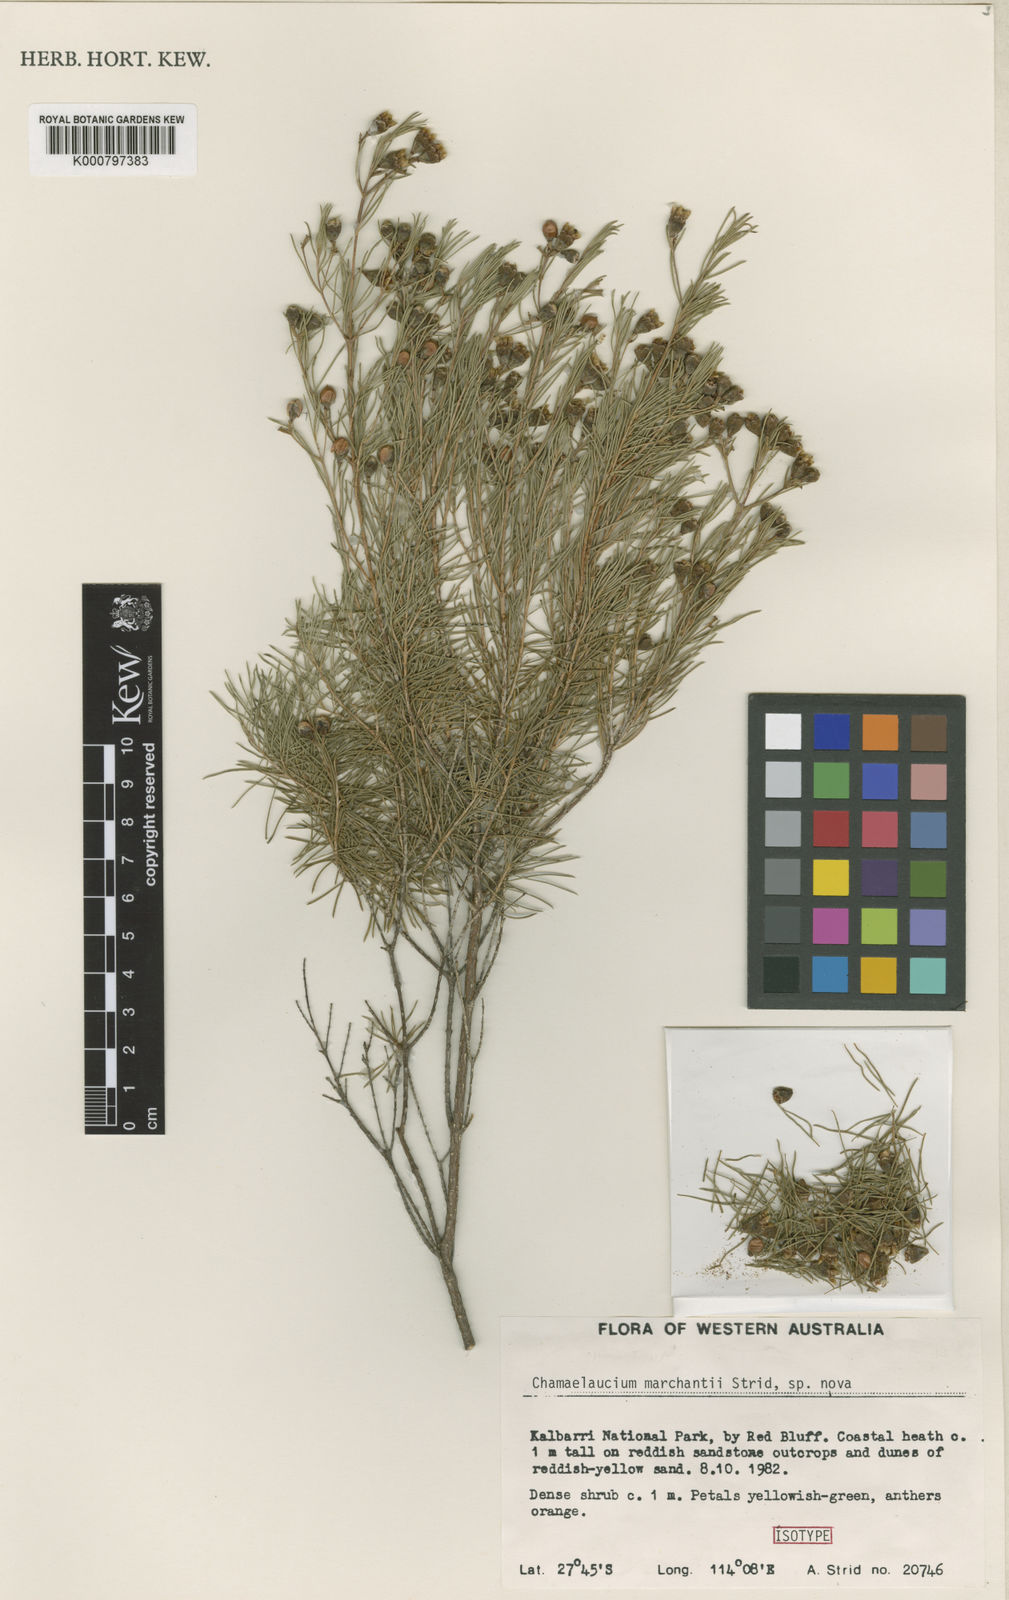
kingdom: Plantae
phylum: Tracheophyta
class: Magnoliopsida
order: Myrtales
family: Myrtaceae
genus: Chamelaucium
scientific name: Chamelaucium marchantii
